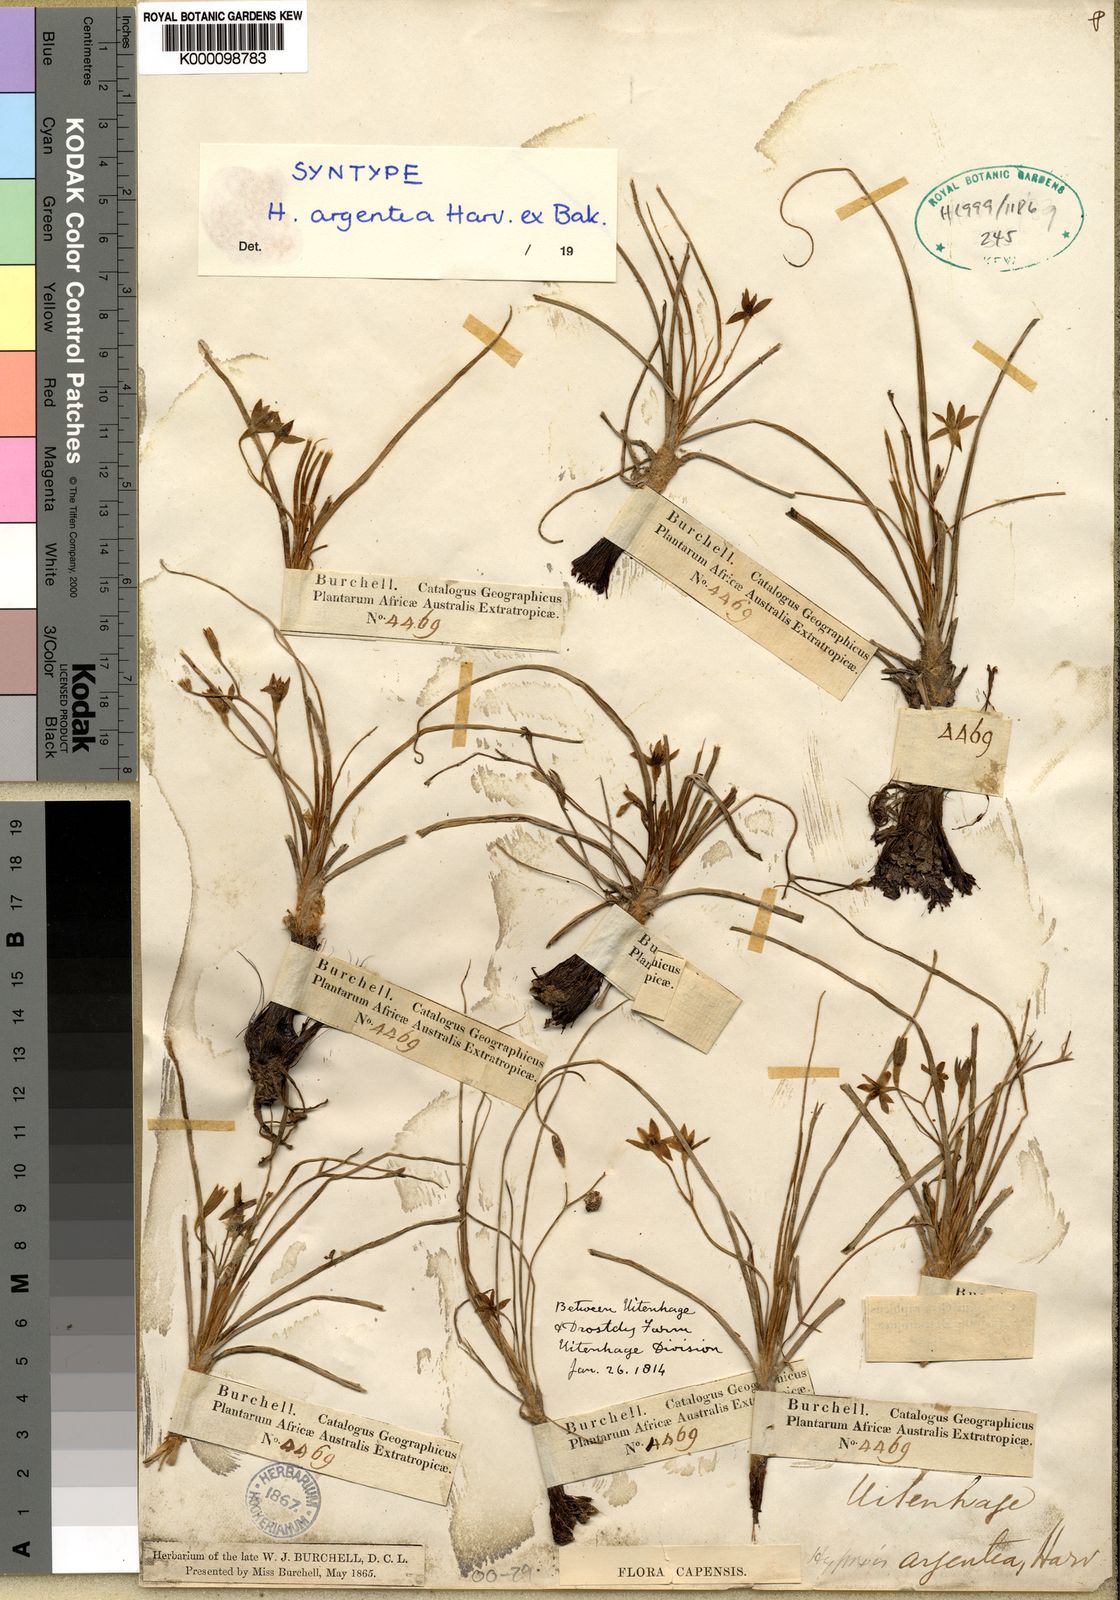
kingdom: Plantae
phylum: Tracheophyta
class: Liliopsida
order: Asparagales
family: Hypoxidaceae
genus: Hypoxis
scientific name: Hypoxis
